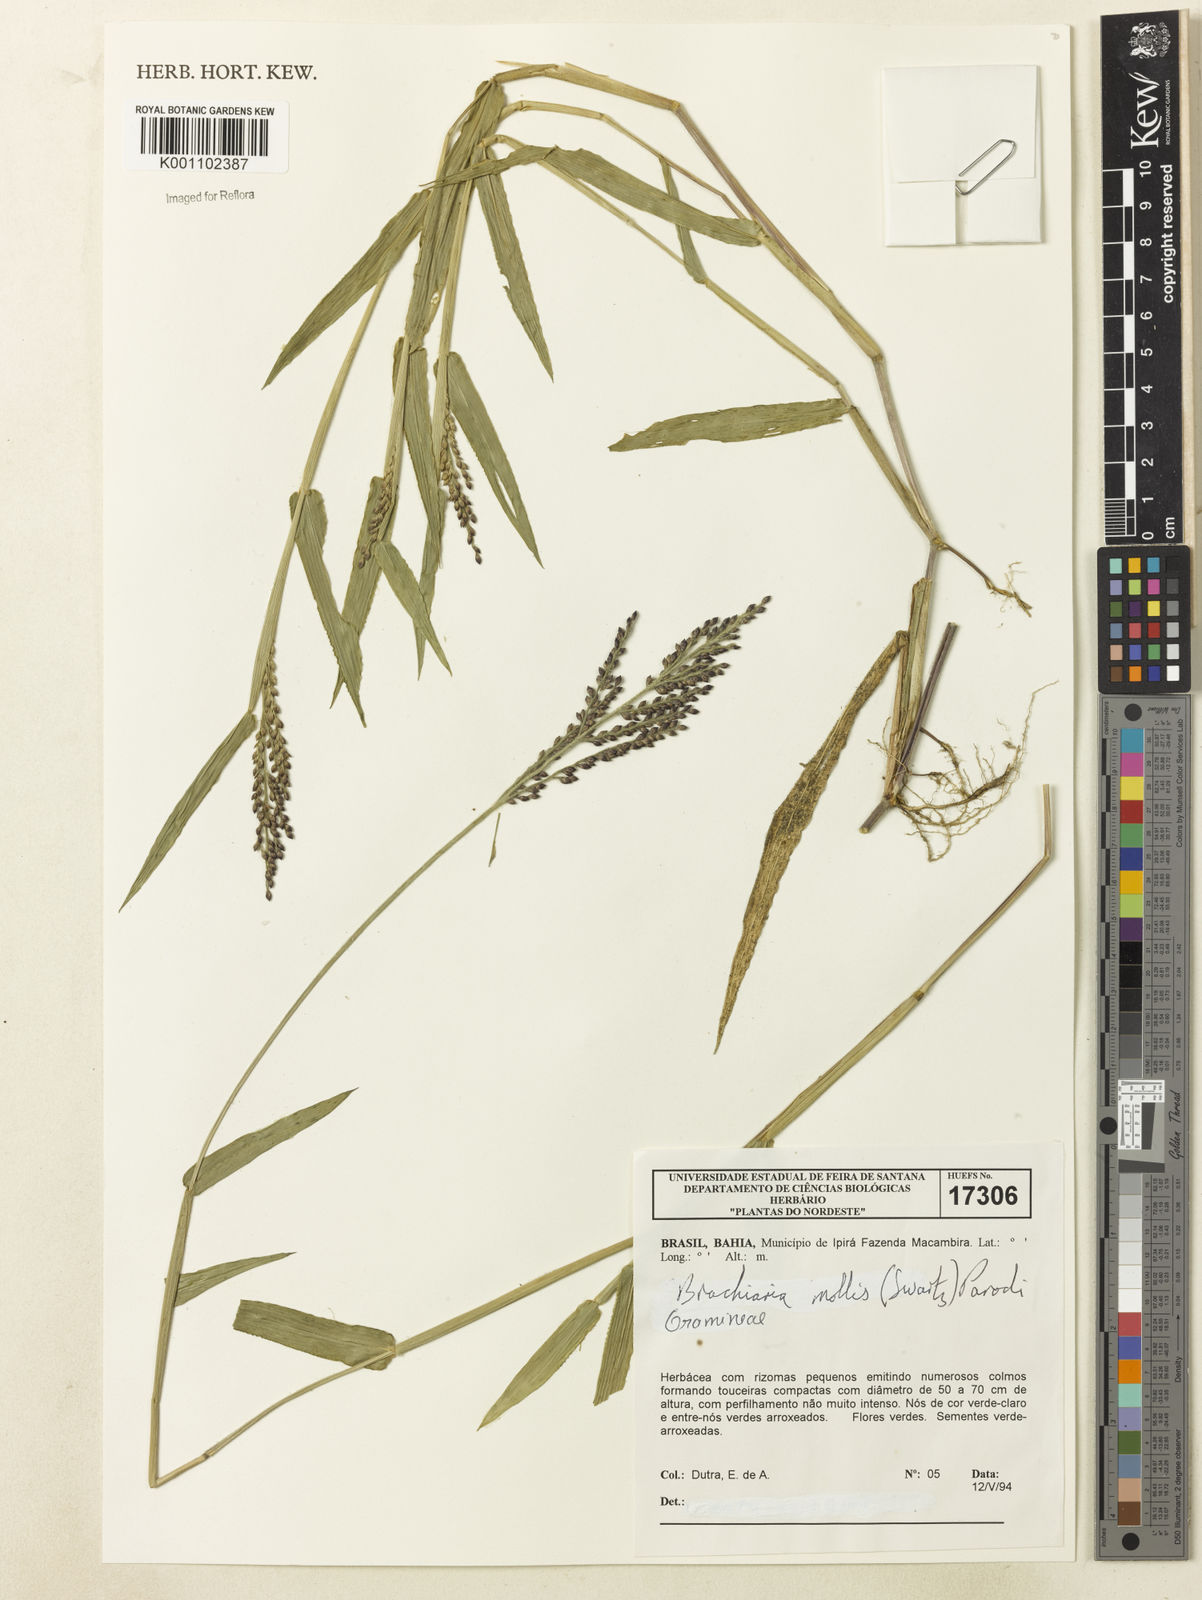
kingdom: Plantae
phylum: Tracheophyta
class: Liliopsida
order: Poales
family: Poaceae
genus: Urochloa
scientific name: Urochloa mollis
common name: Grass
